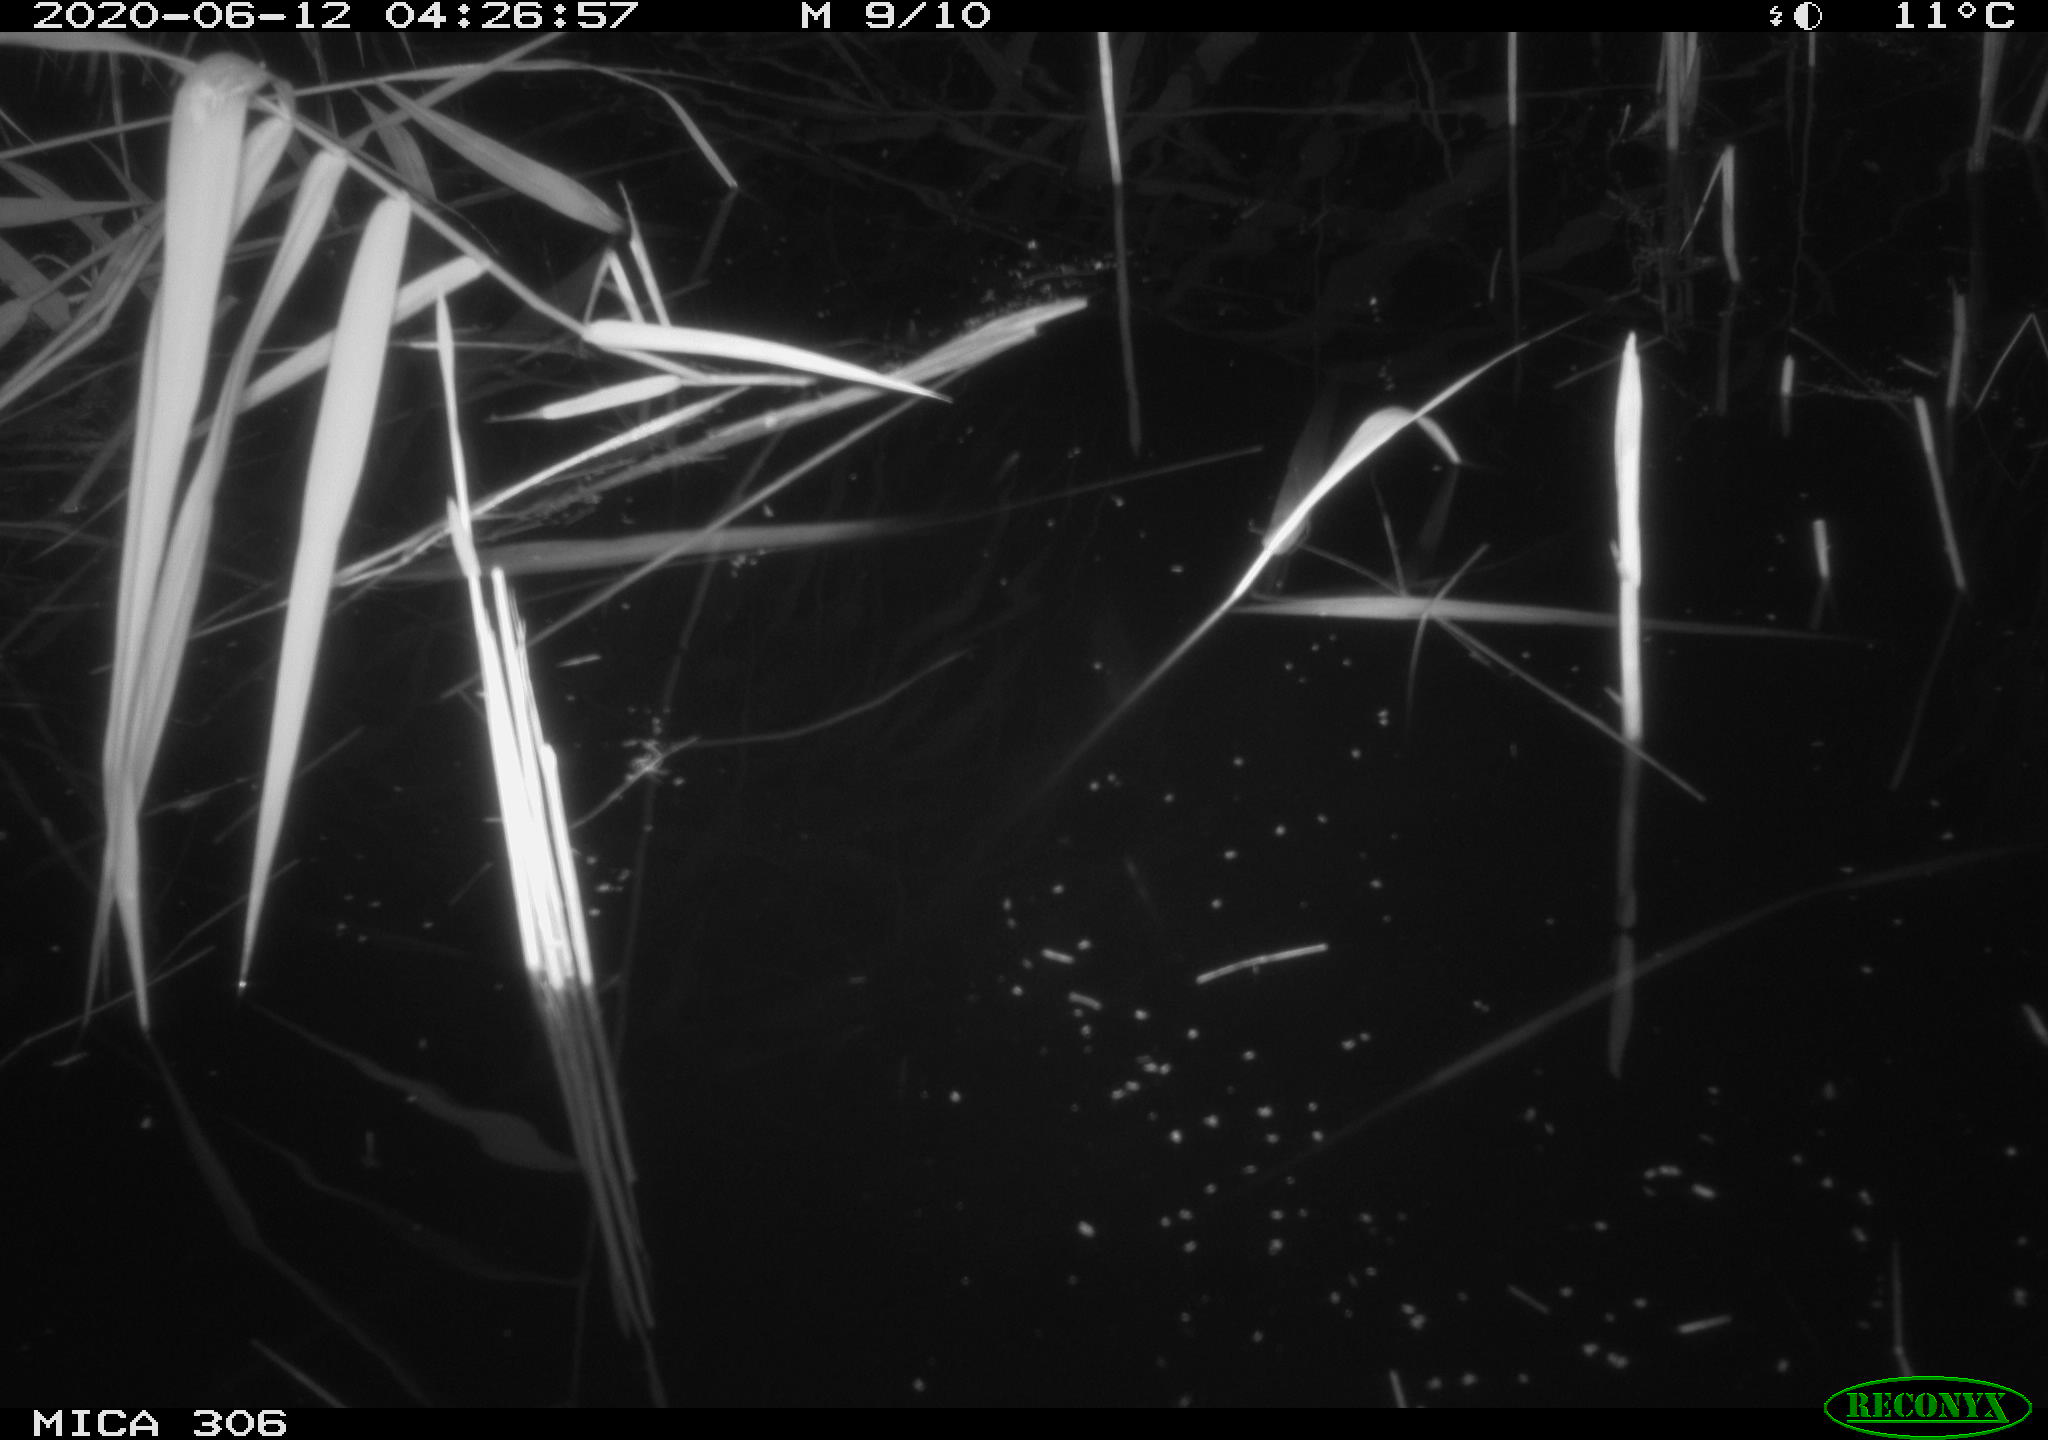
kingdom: Animalia
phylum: Chordata
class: Mammalia
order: Rodentia
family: Muridae
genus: Rattus
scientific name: Rattus norvegicus
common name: Brown rat
